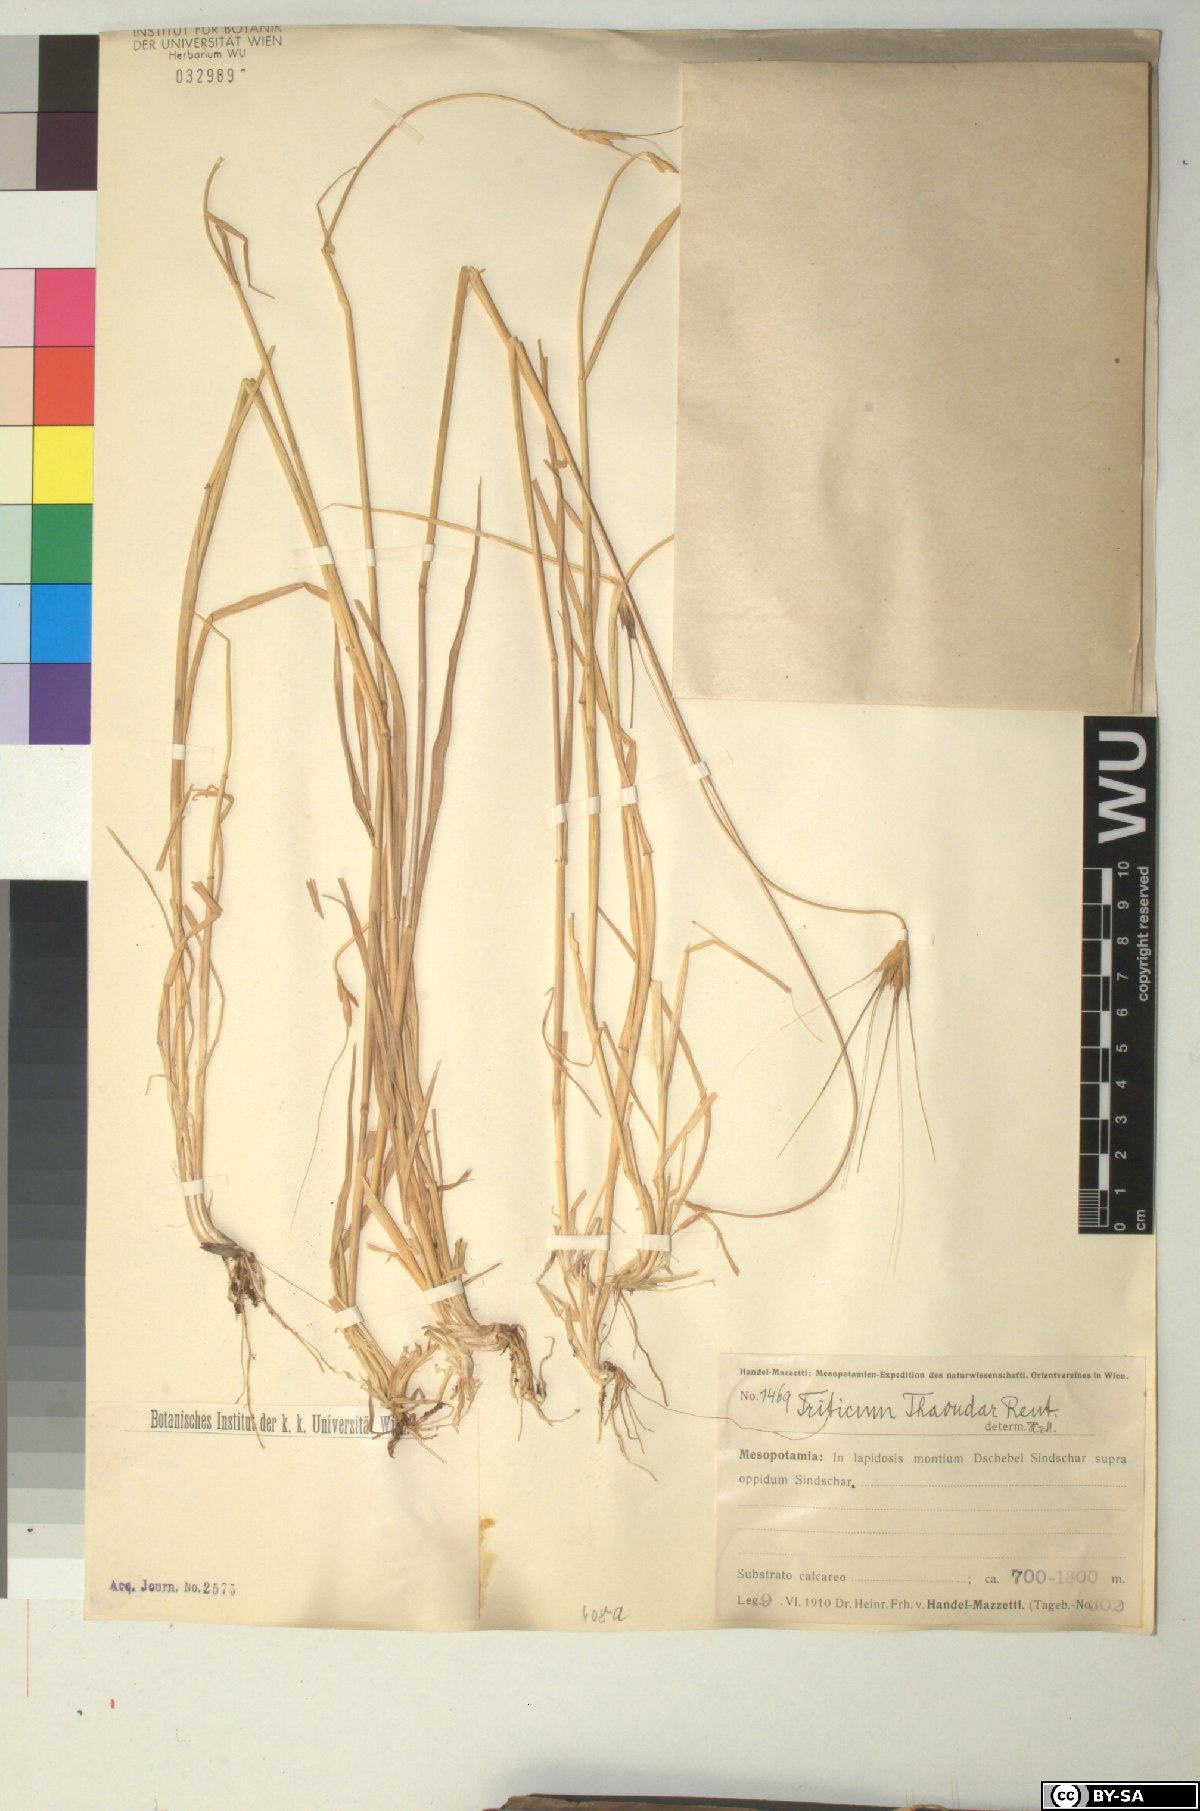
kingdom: Plantae
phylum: Tracheophyta
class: Liliopsida
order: Poales
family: Poaceae
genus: Triticum
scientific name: Triticum monococcum
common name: Einkorn
